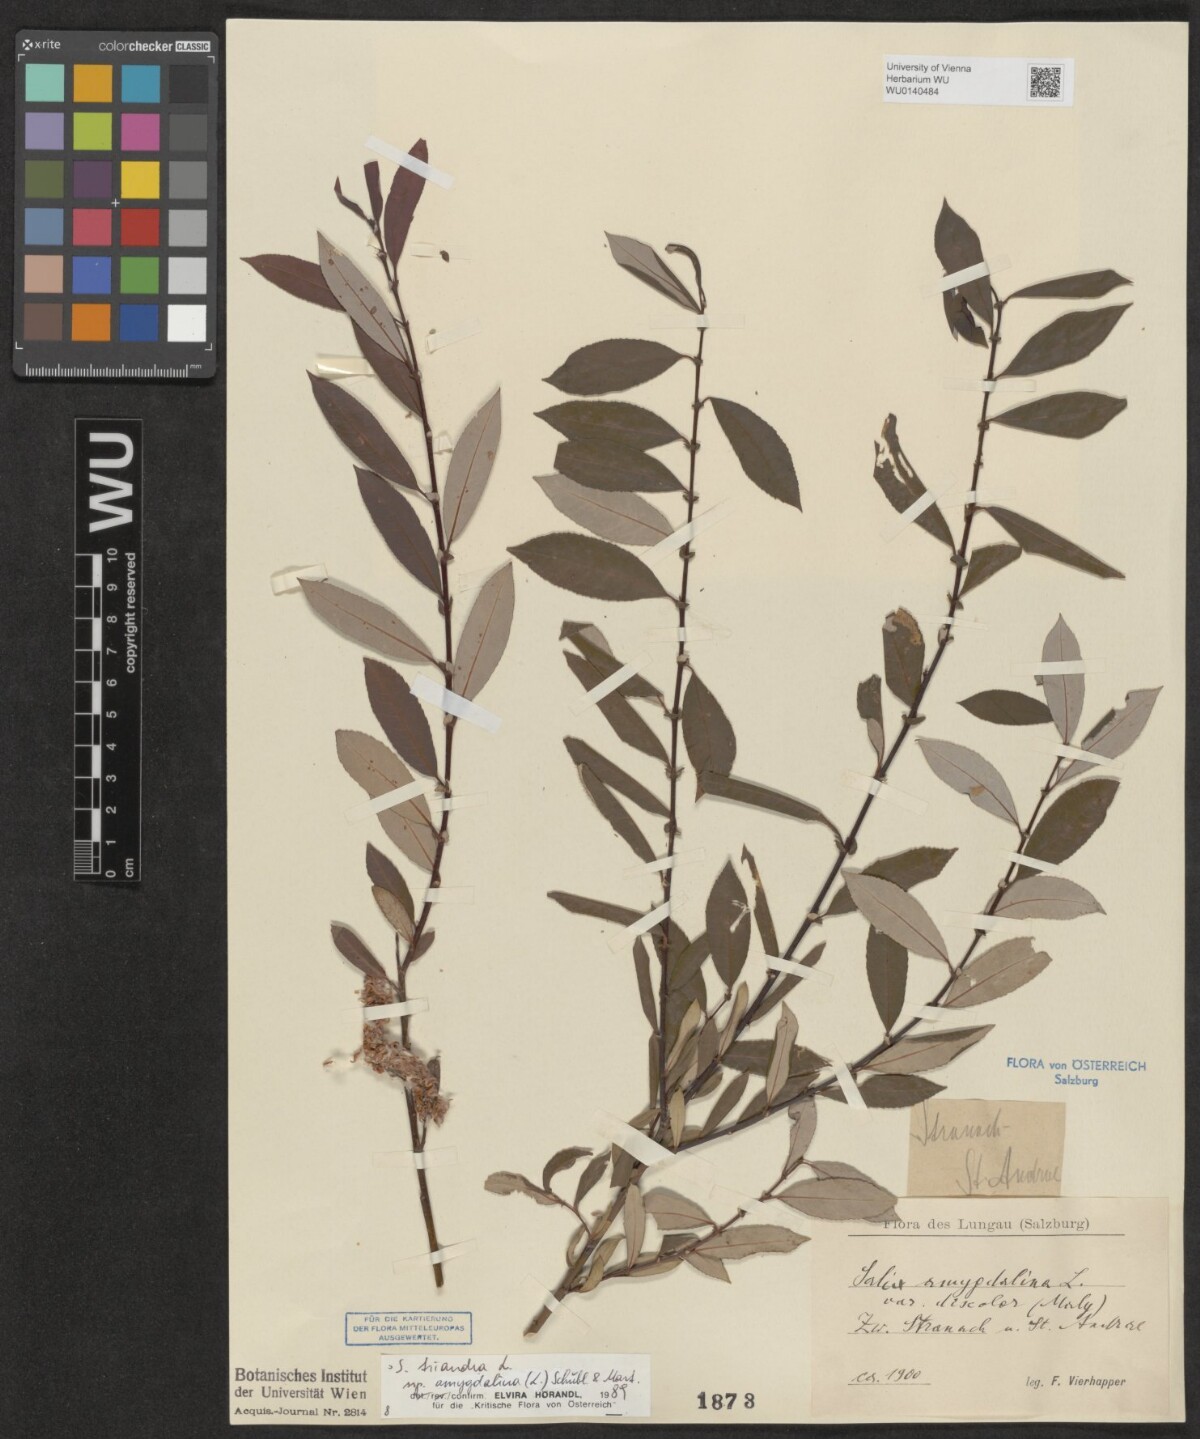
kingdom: Plantae
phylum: Tracheophyta
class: Magnoliopsida
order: Malpighiales
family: Salicaceae
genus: Salix
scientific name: Salix triandra
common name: Almond willow
